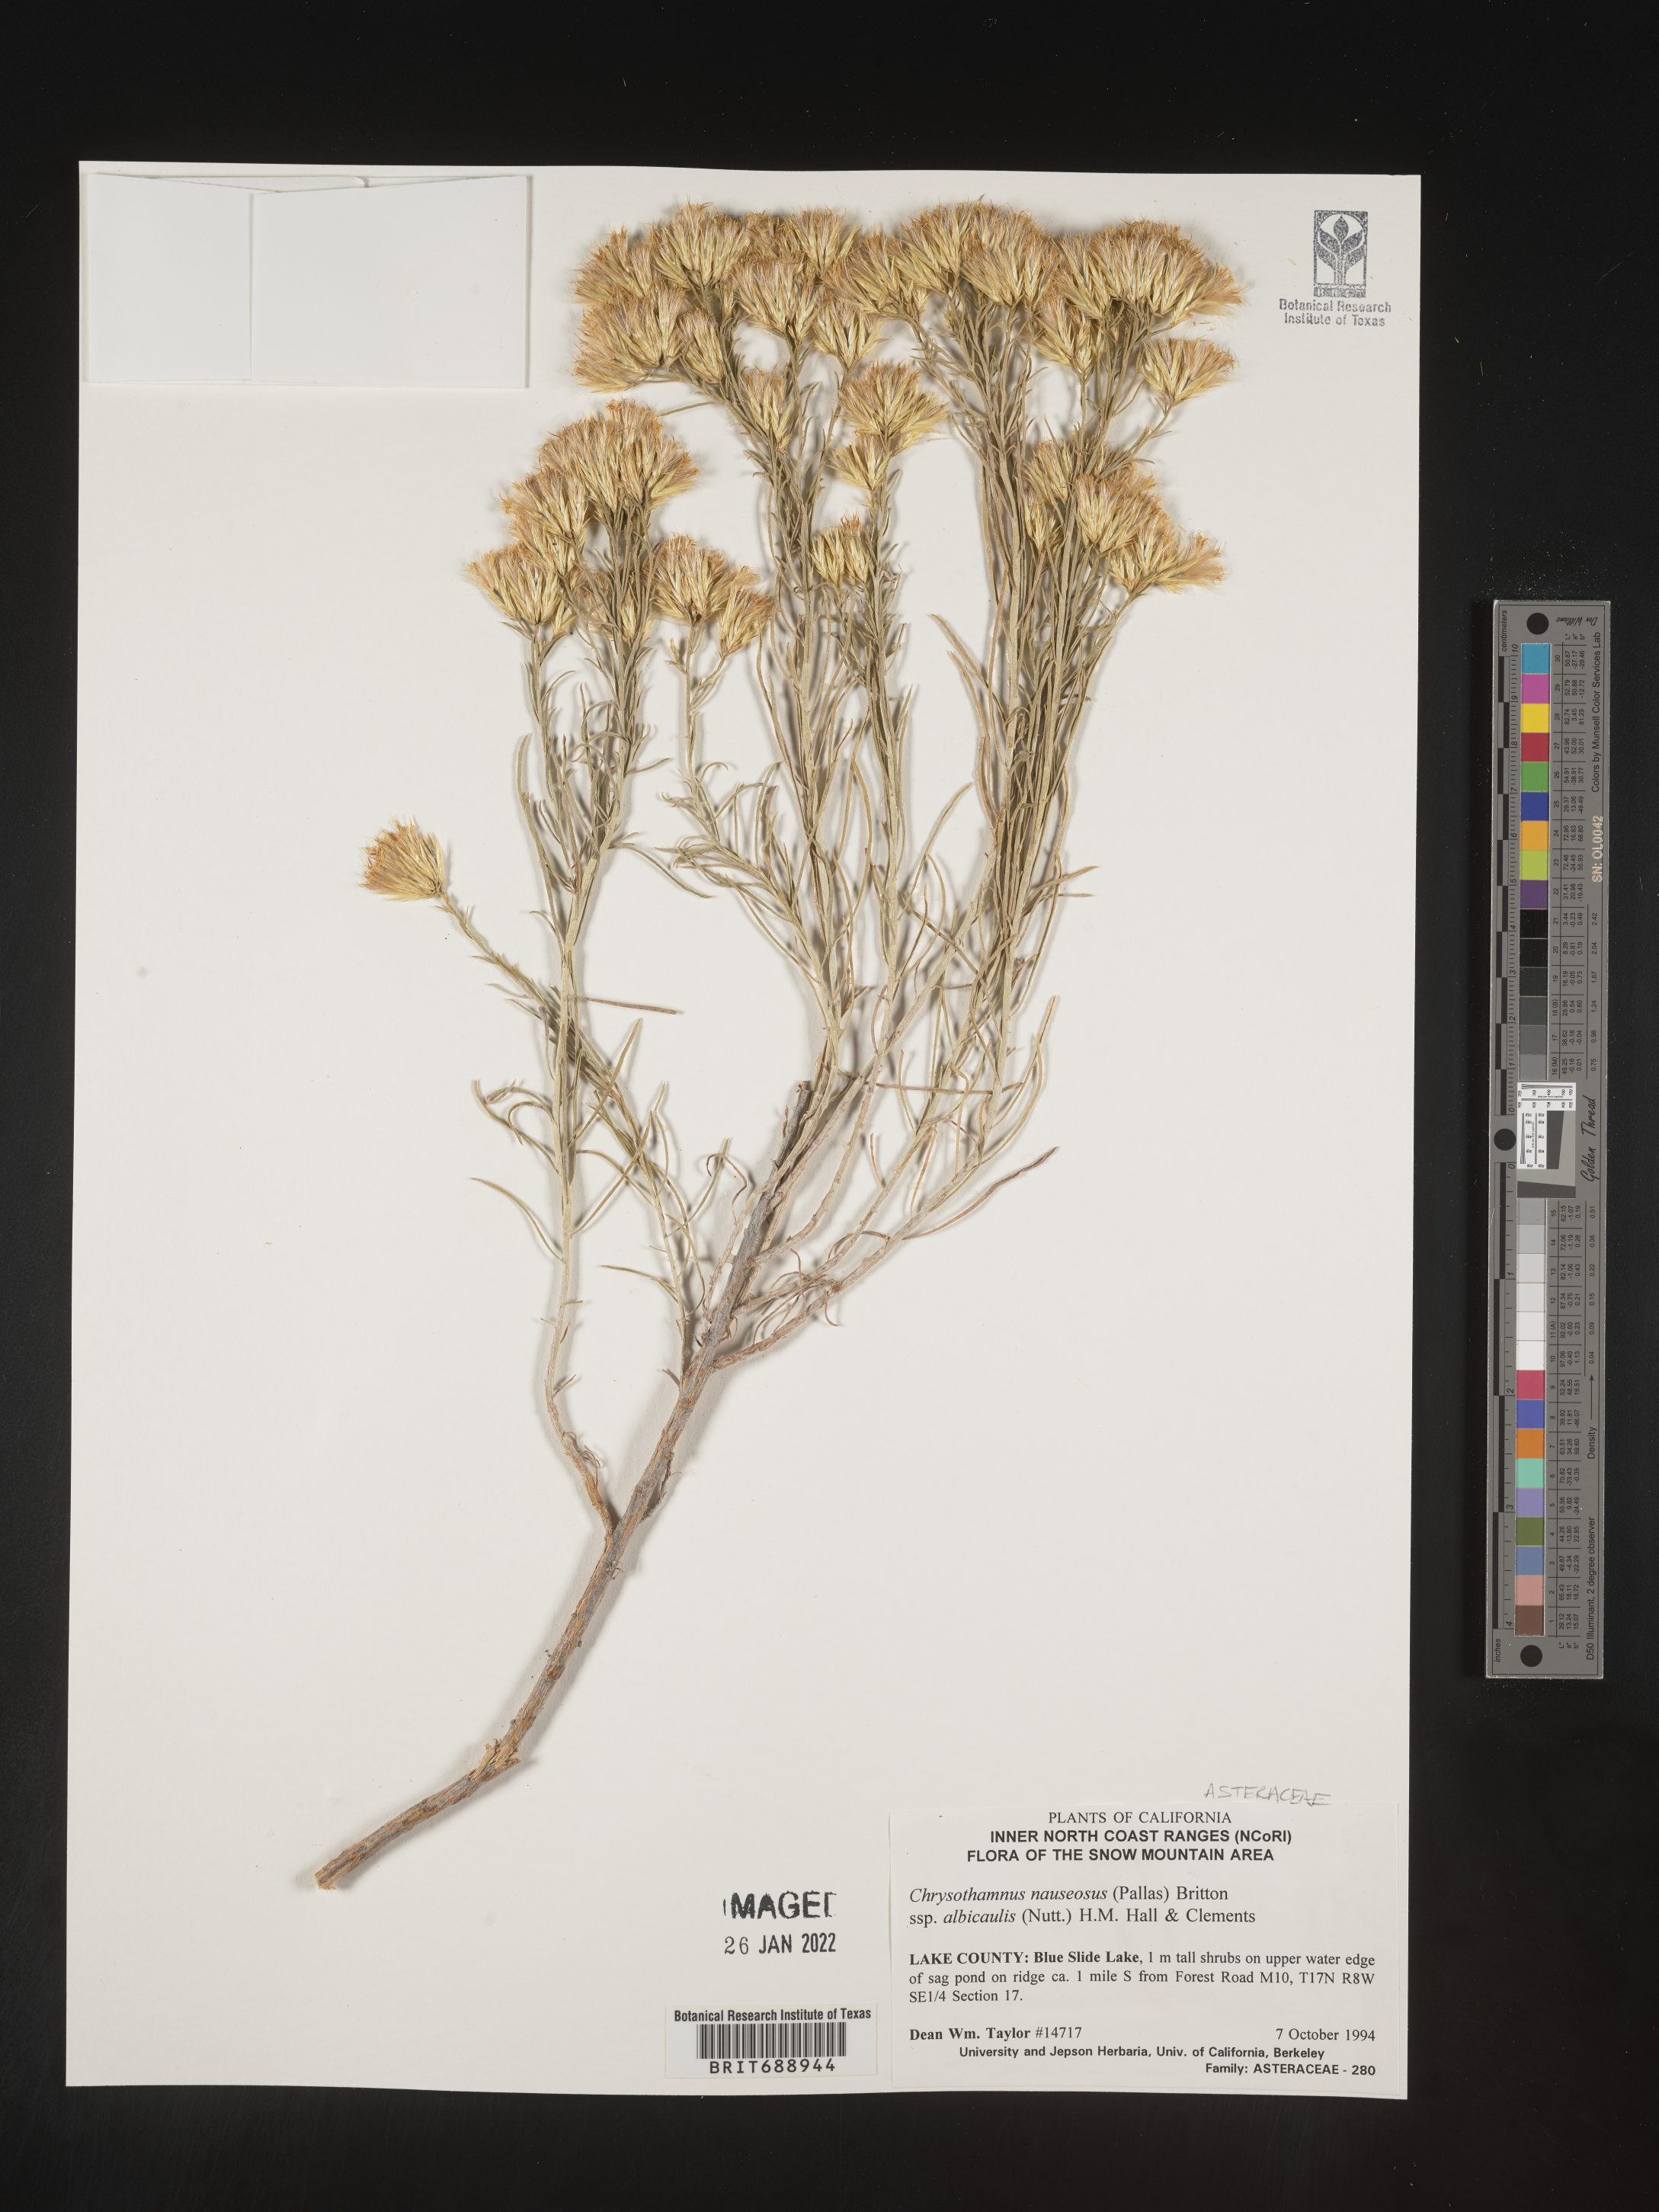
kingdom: Plantae
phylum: Tracheophyta
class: Magnoliopsida
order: Asterales
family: Asteraceae
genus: Ericameria
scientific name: Ericameria nauseosa
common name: Rubber rabbitbrush
